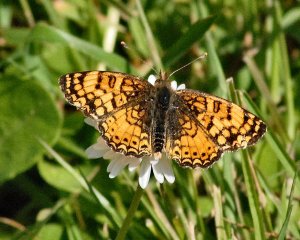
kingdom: Animalia
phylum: Arthropoda
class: Insecta
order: Lepidoptera
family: Nymphalidae
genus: Eresia
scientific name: Eresia aveyrona
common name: Mylitta Crescent
